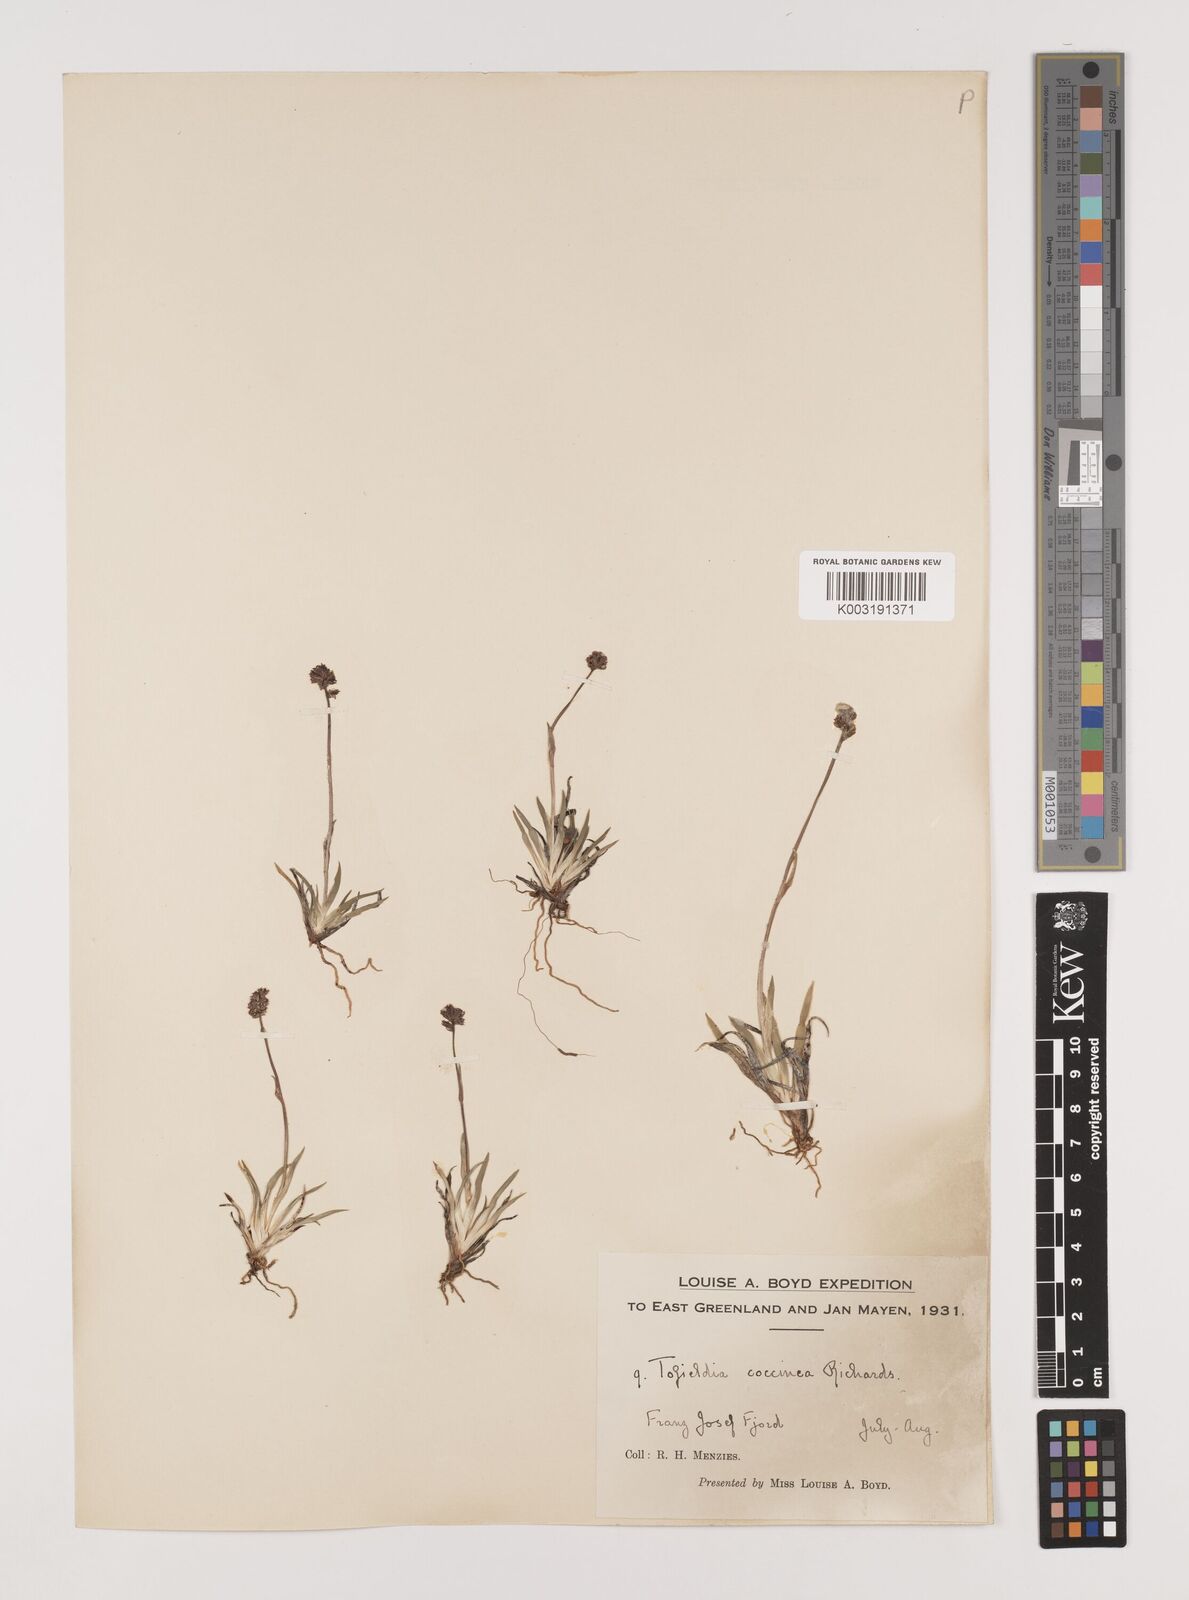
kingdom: Plantae
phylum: Tracheophyta
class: Liliopsida
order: Alismatales
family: Tofieldiaceae
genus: Tofieldia
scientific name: Tofieldia coccinea
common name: Northern false asphodel
